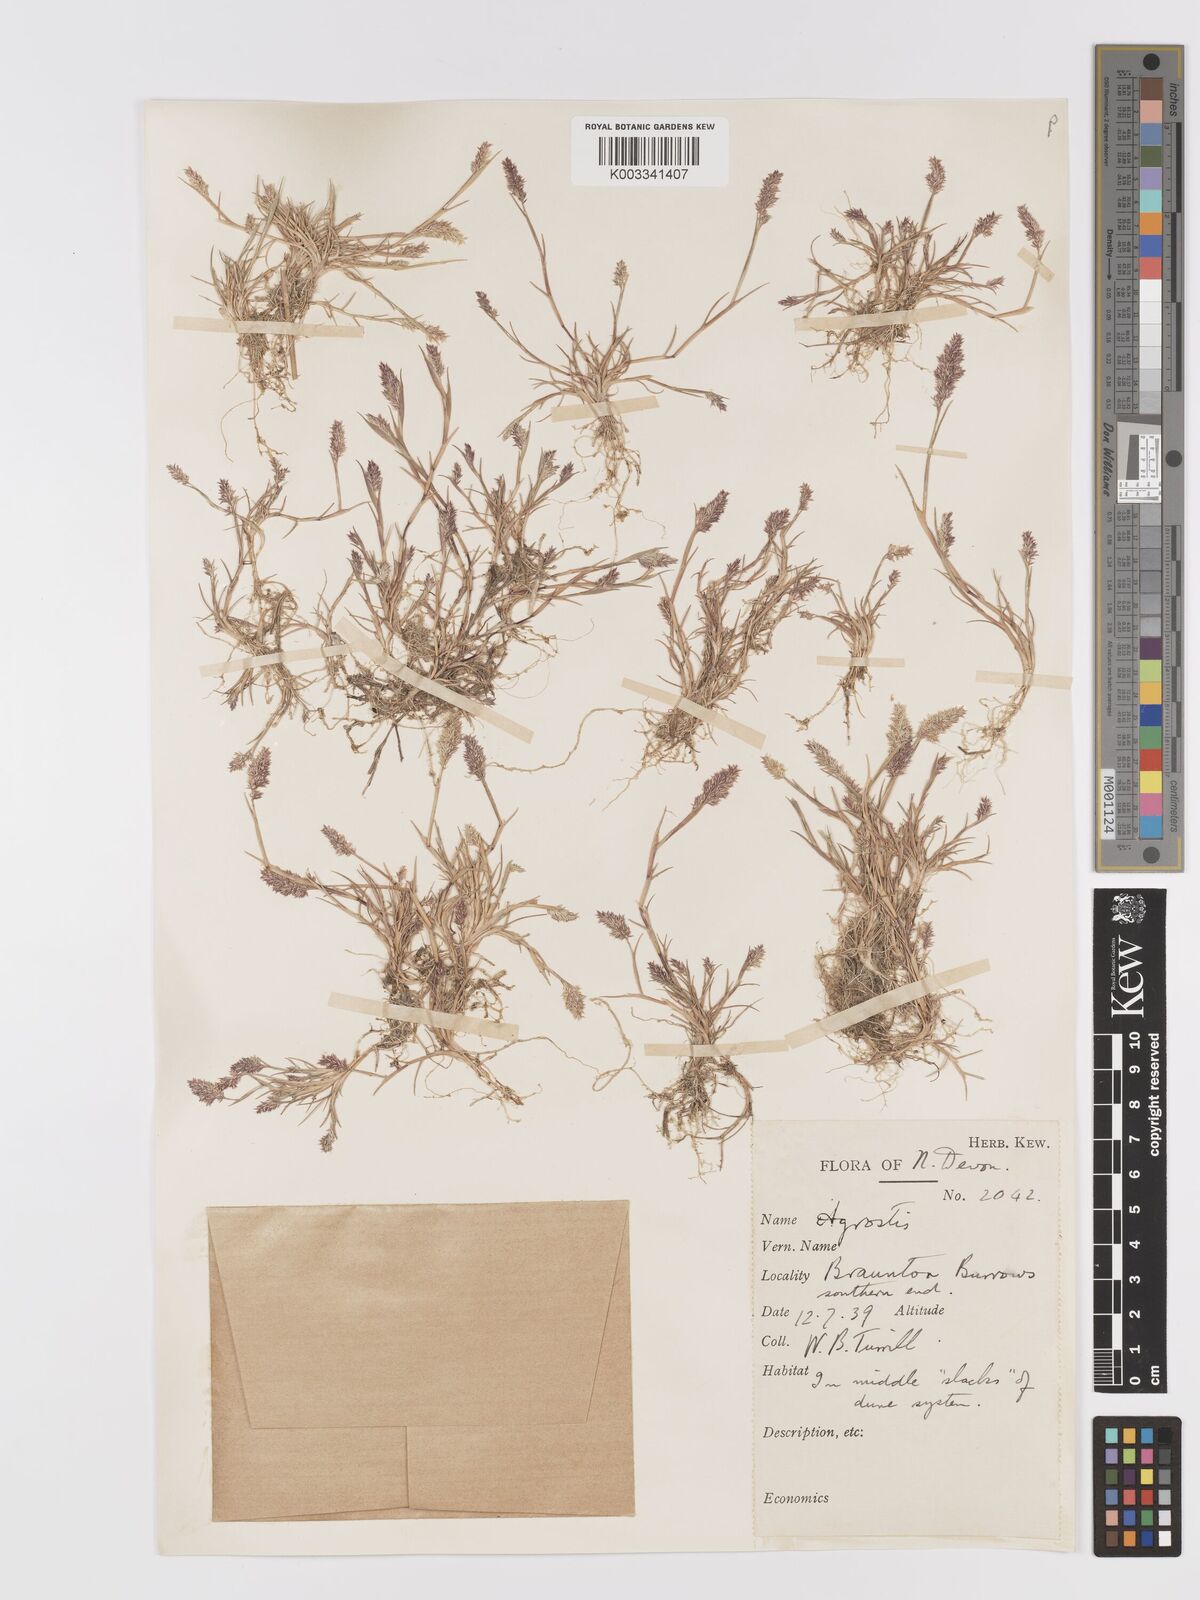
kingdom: Plantae
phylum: Tracheophyta
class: Liliopsida
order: Poales
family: Poaceae
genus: Agrostis
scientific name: Agrostis stolonifera
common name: Creeping bentgrass
